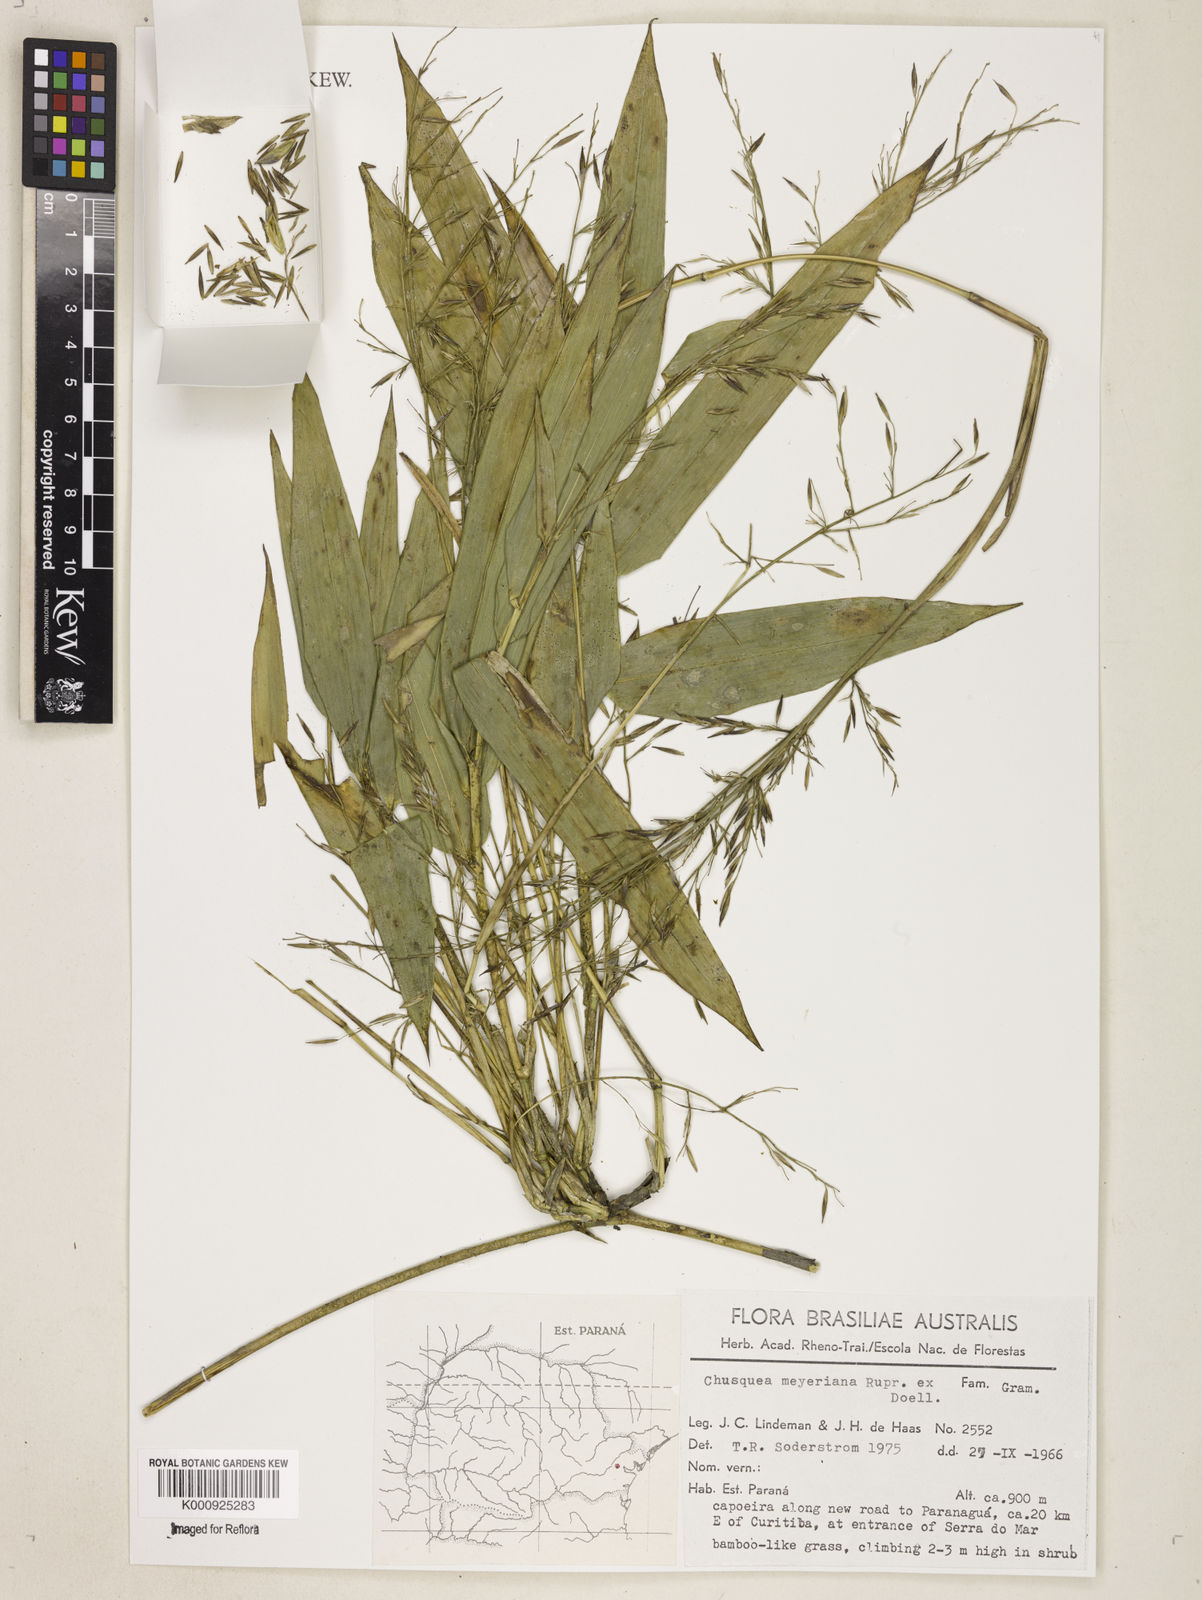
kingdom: Plantae
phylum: Tracheophyta
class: Liliopsida
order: Poales
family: Poaceae
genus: Chusquea
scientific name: Chusquea
